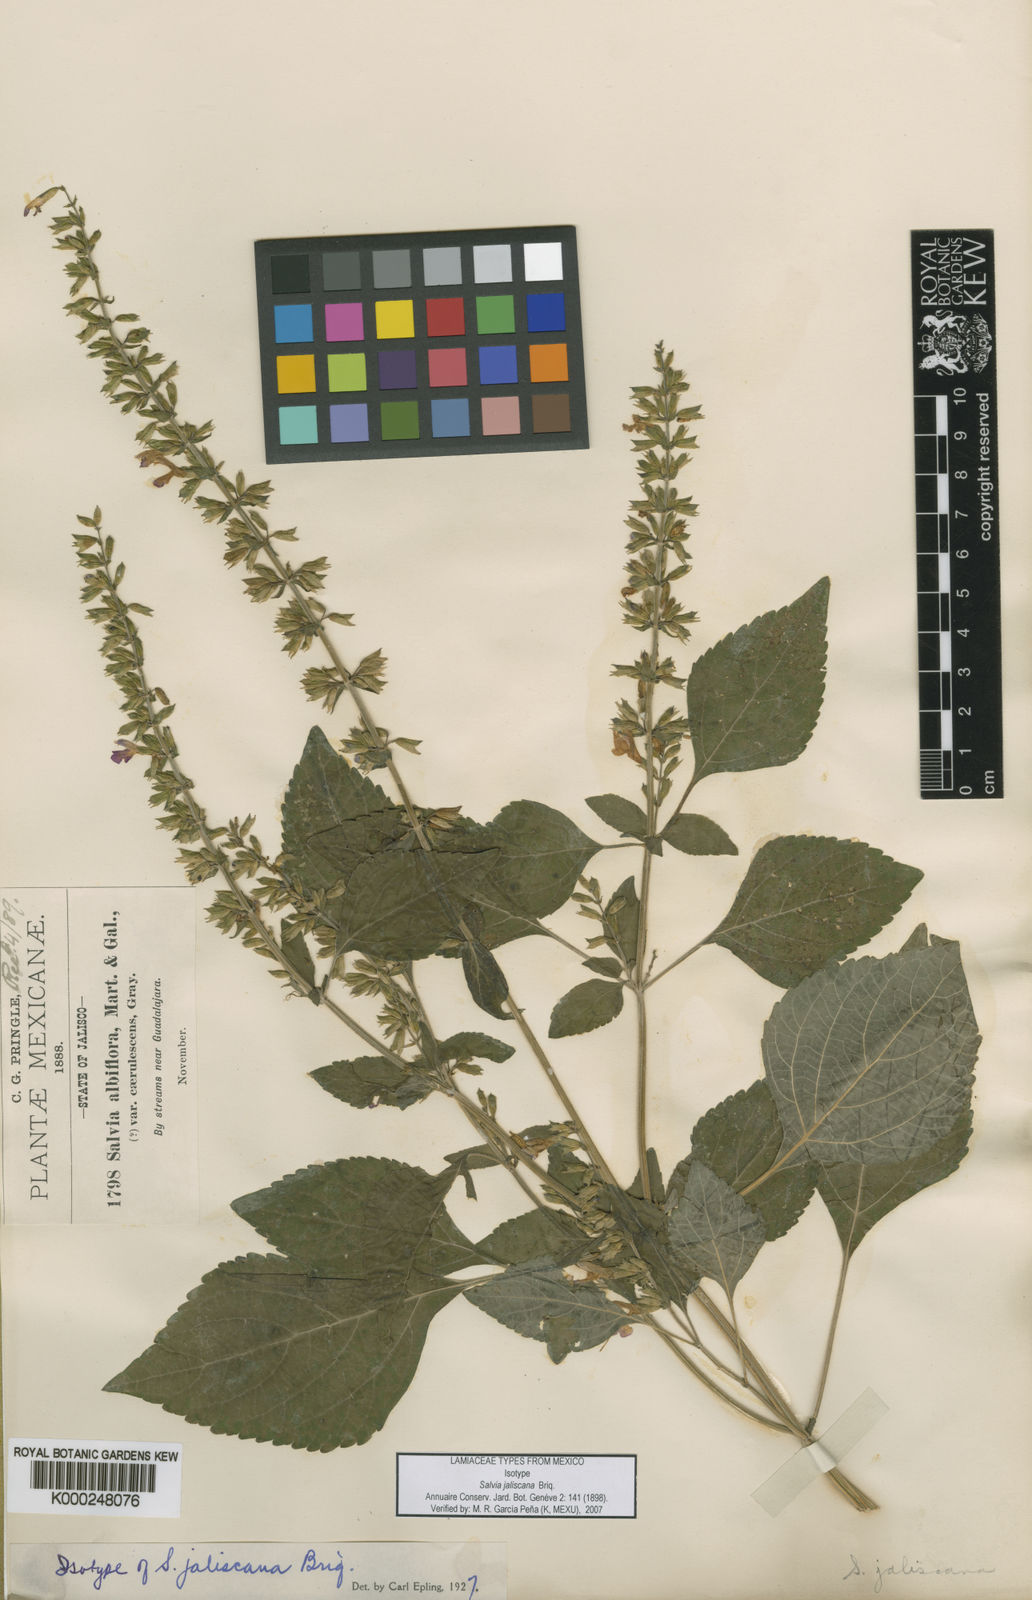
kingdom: Plantae
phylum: Tracheophyta
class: Magnoliopsida
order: Lamiales
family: Lamiaceae
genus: Salvia
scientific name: Salvia longispicata
